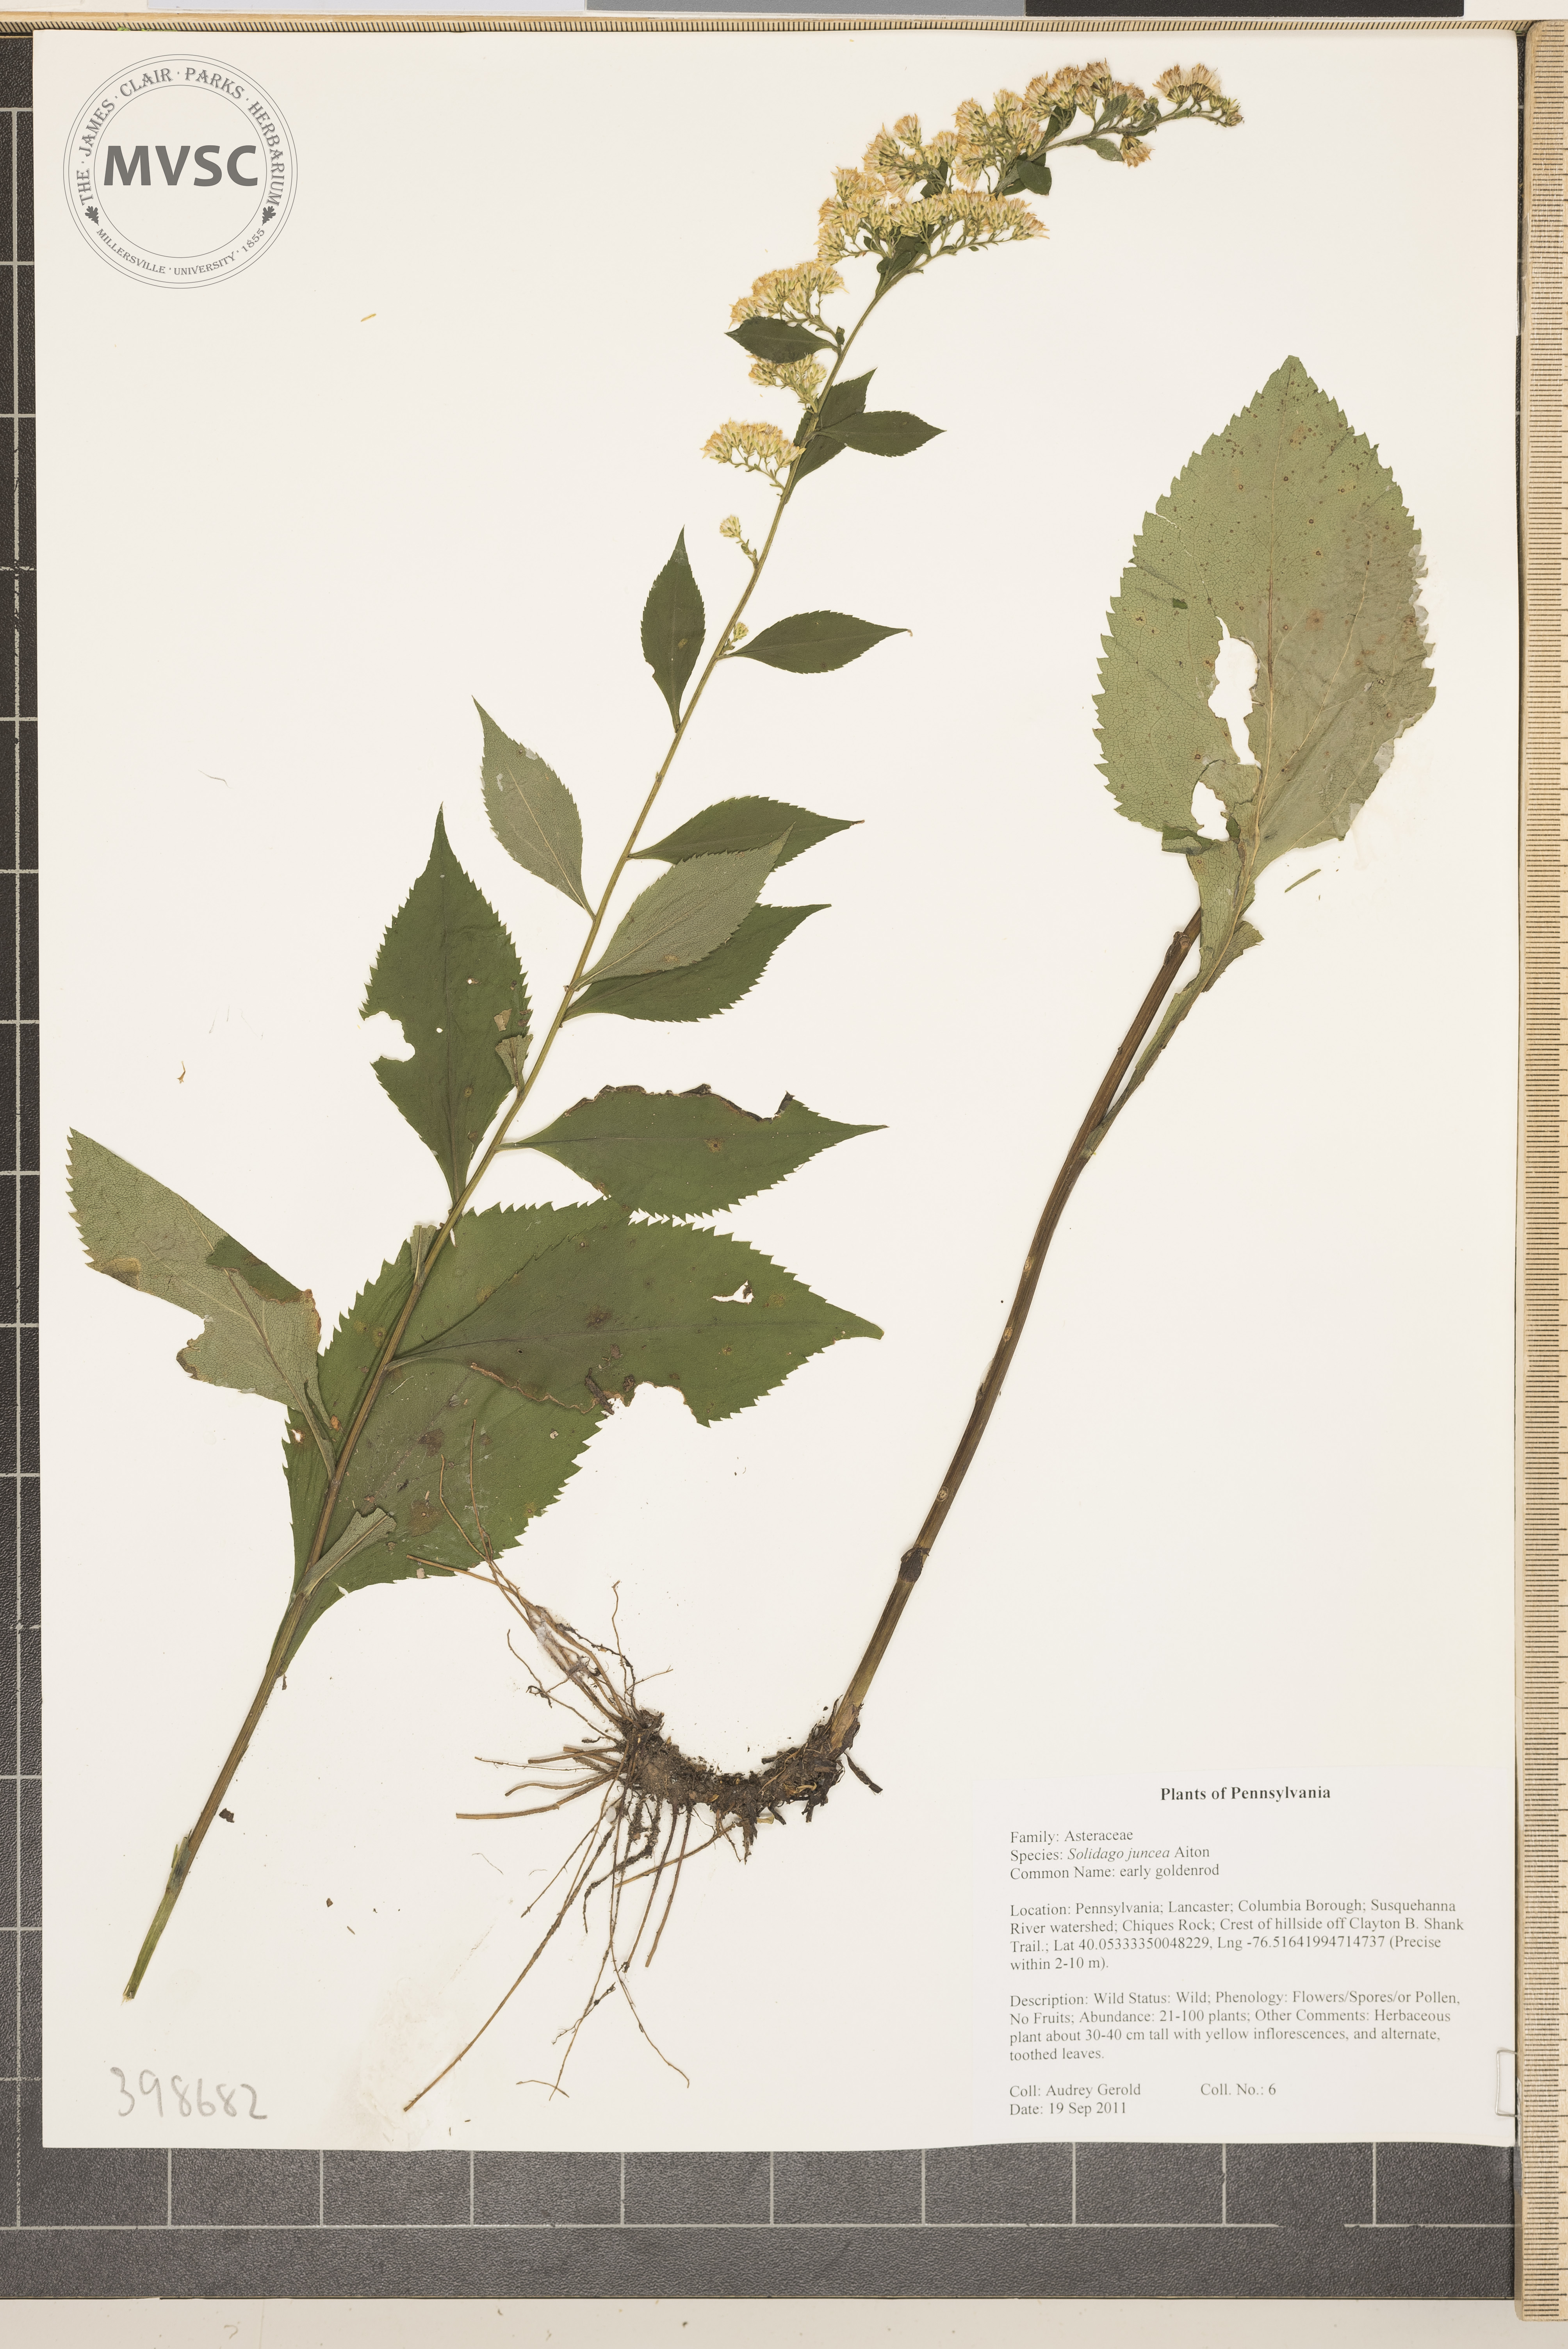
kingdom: Plantae
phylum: Tracheophyta
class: Magnoliopsida
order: Asterales
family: Asteraceae
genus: Solidago
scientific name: Solidago juncea
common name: Early goldenrod
